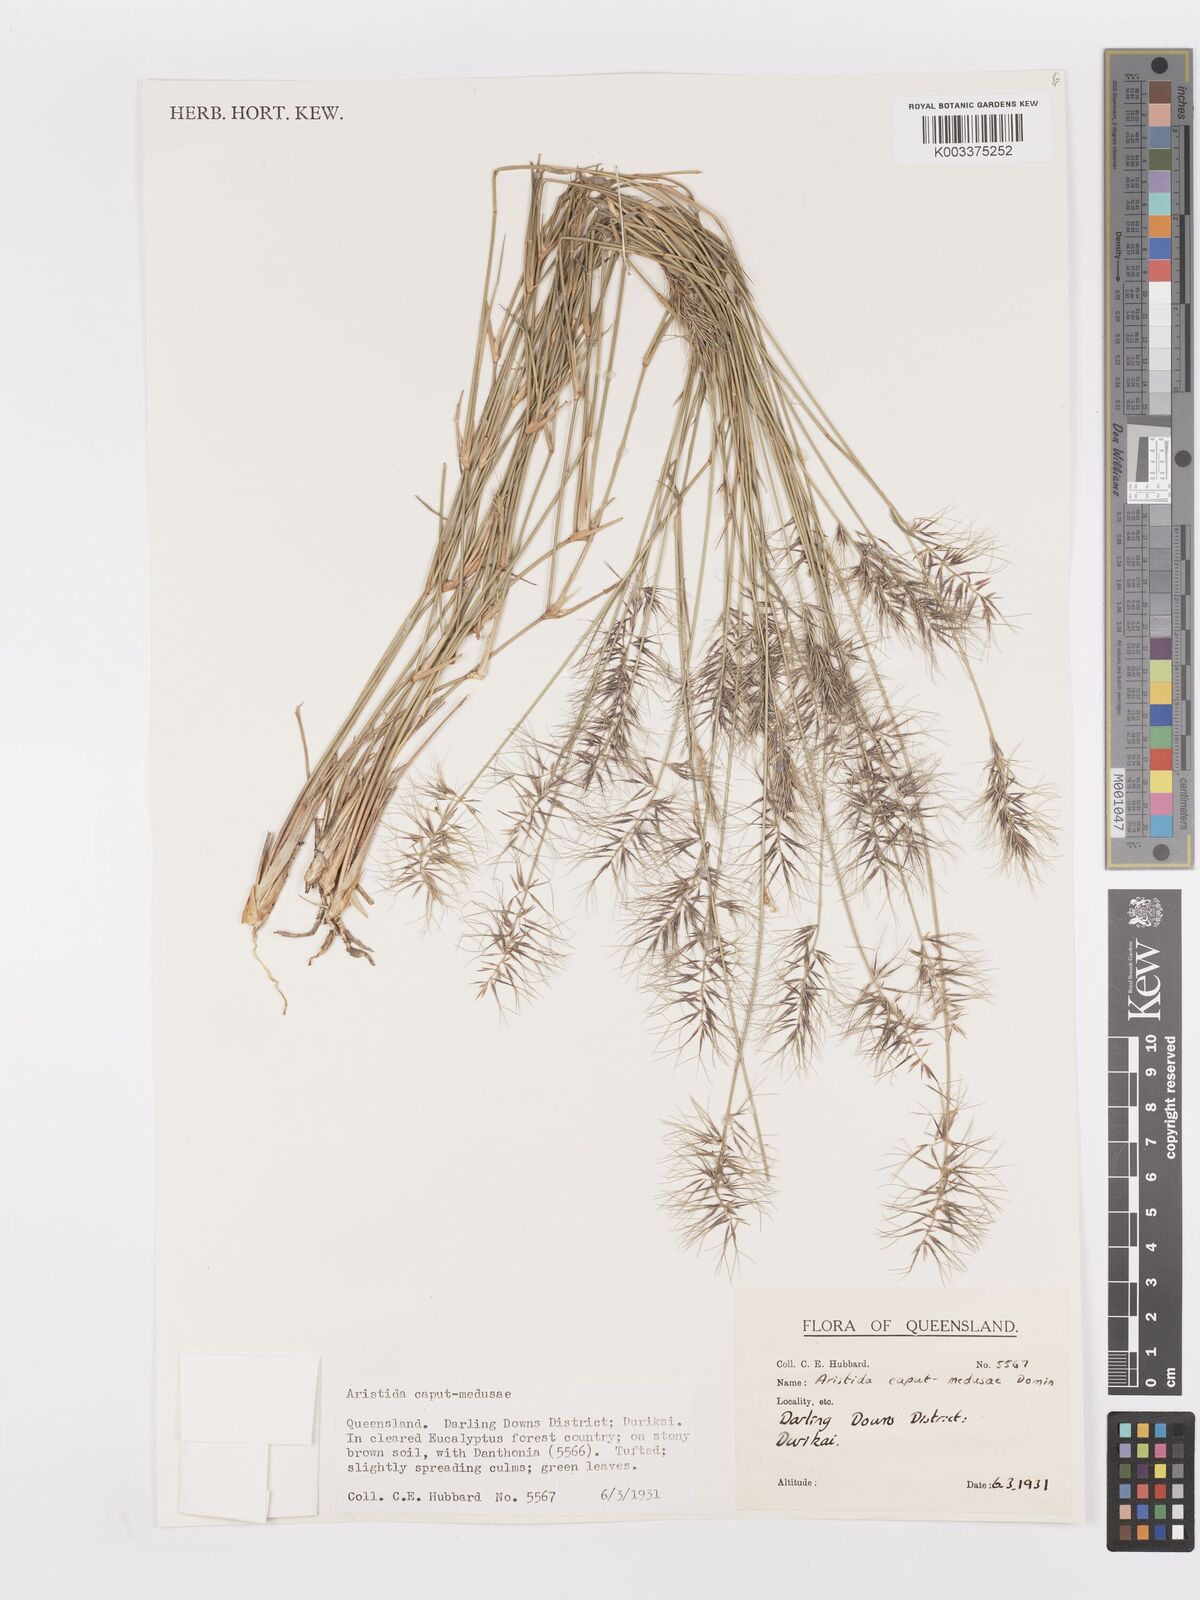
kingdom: Plantae
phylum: Tracheophyta
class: Liliopsida
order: Poales
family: Poaceae
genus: Aristida
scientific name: Aristida caput-medusae
